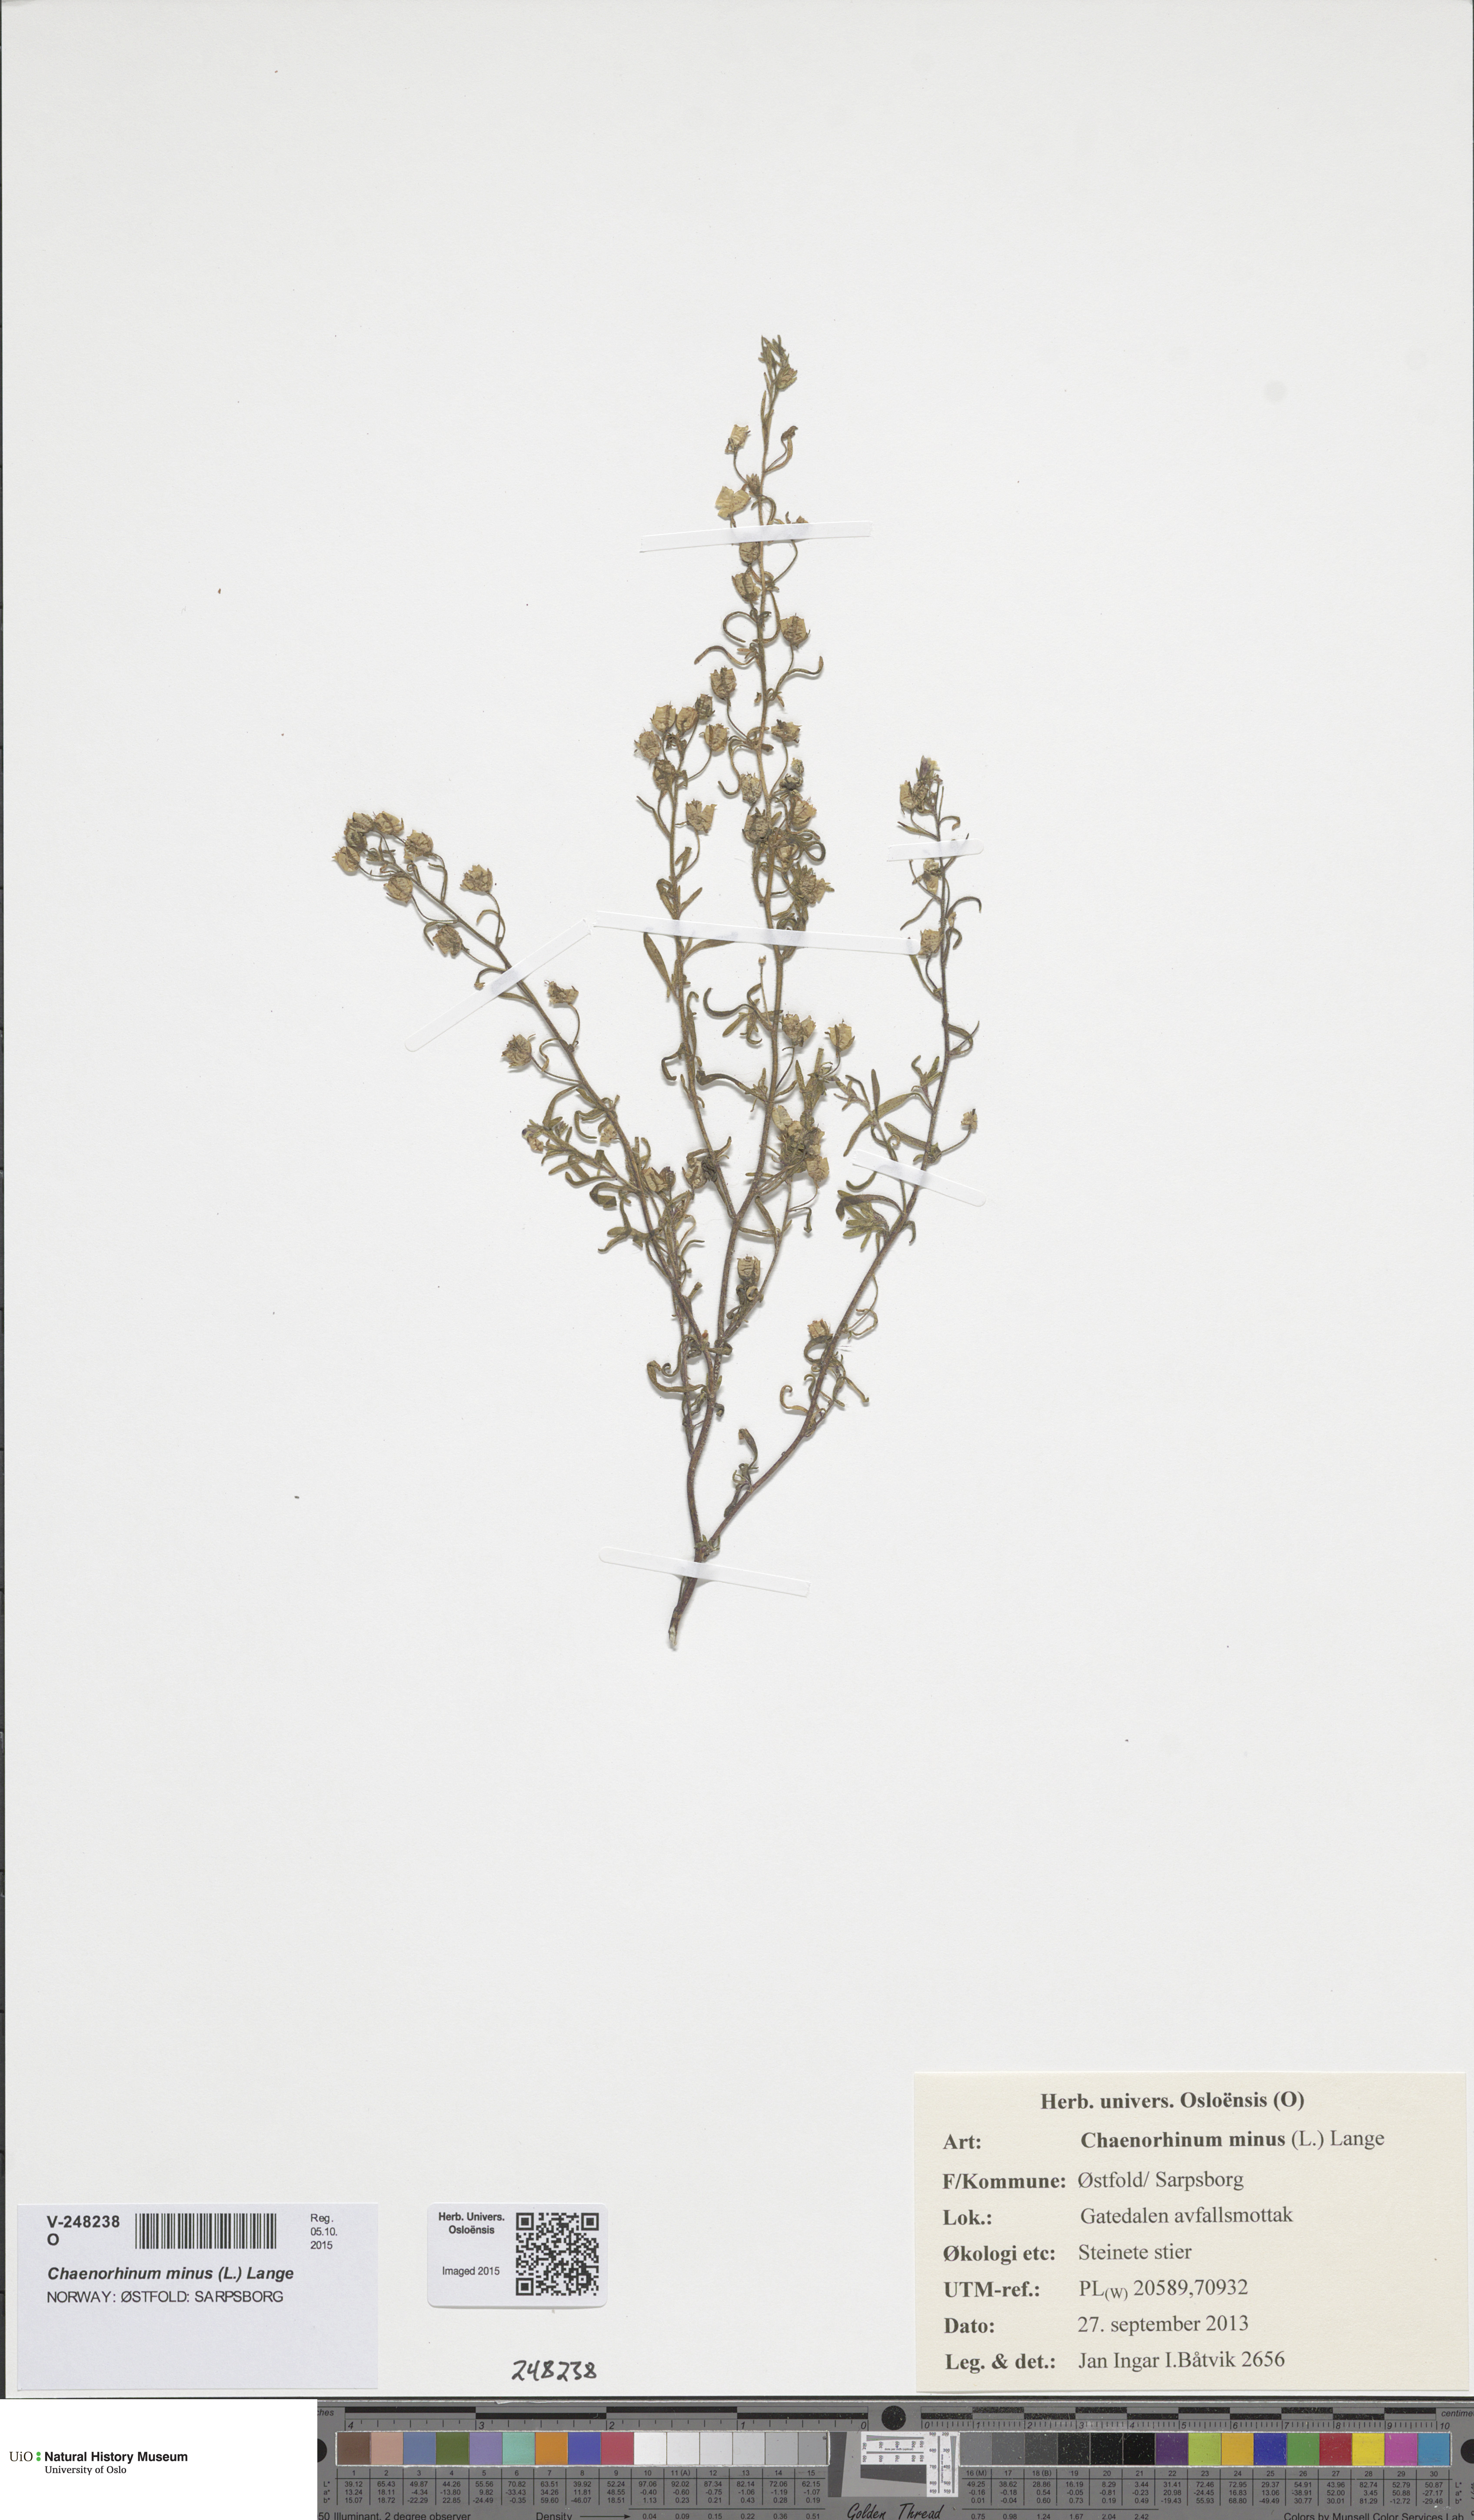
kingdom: Plantae
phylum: Tracheophyta
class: Magnoliopsida
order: Lamiales
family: Plantaginaceae
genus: Chaenorhinum
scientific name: Chaenorhinum minus
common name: Dwarf snapdragon
